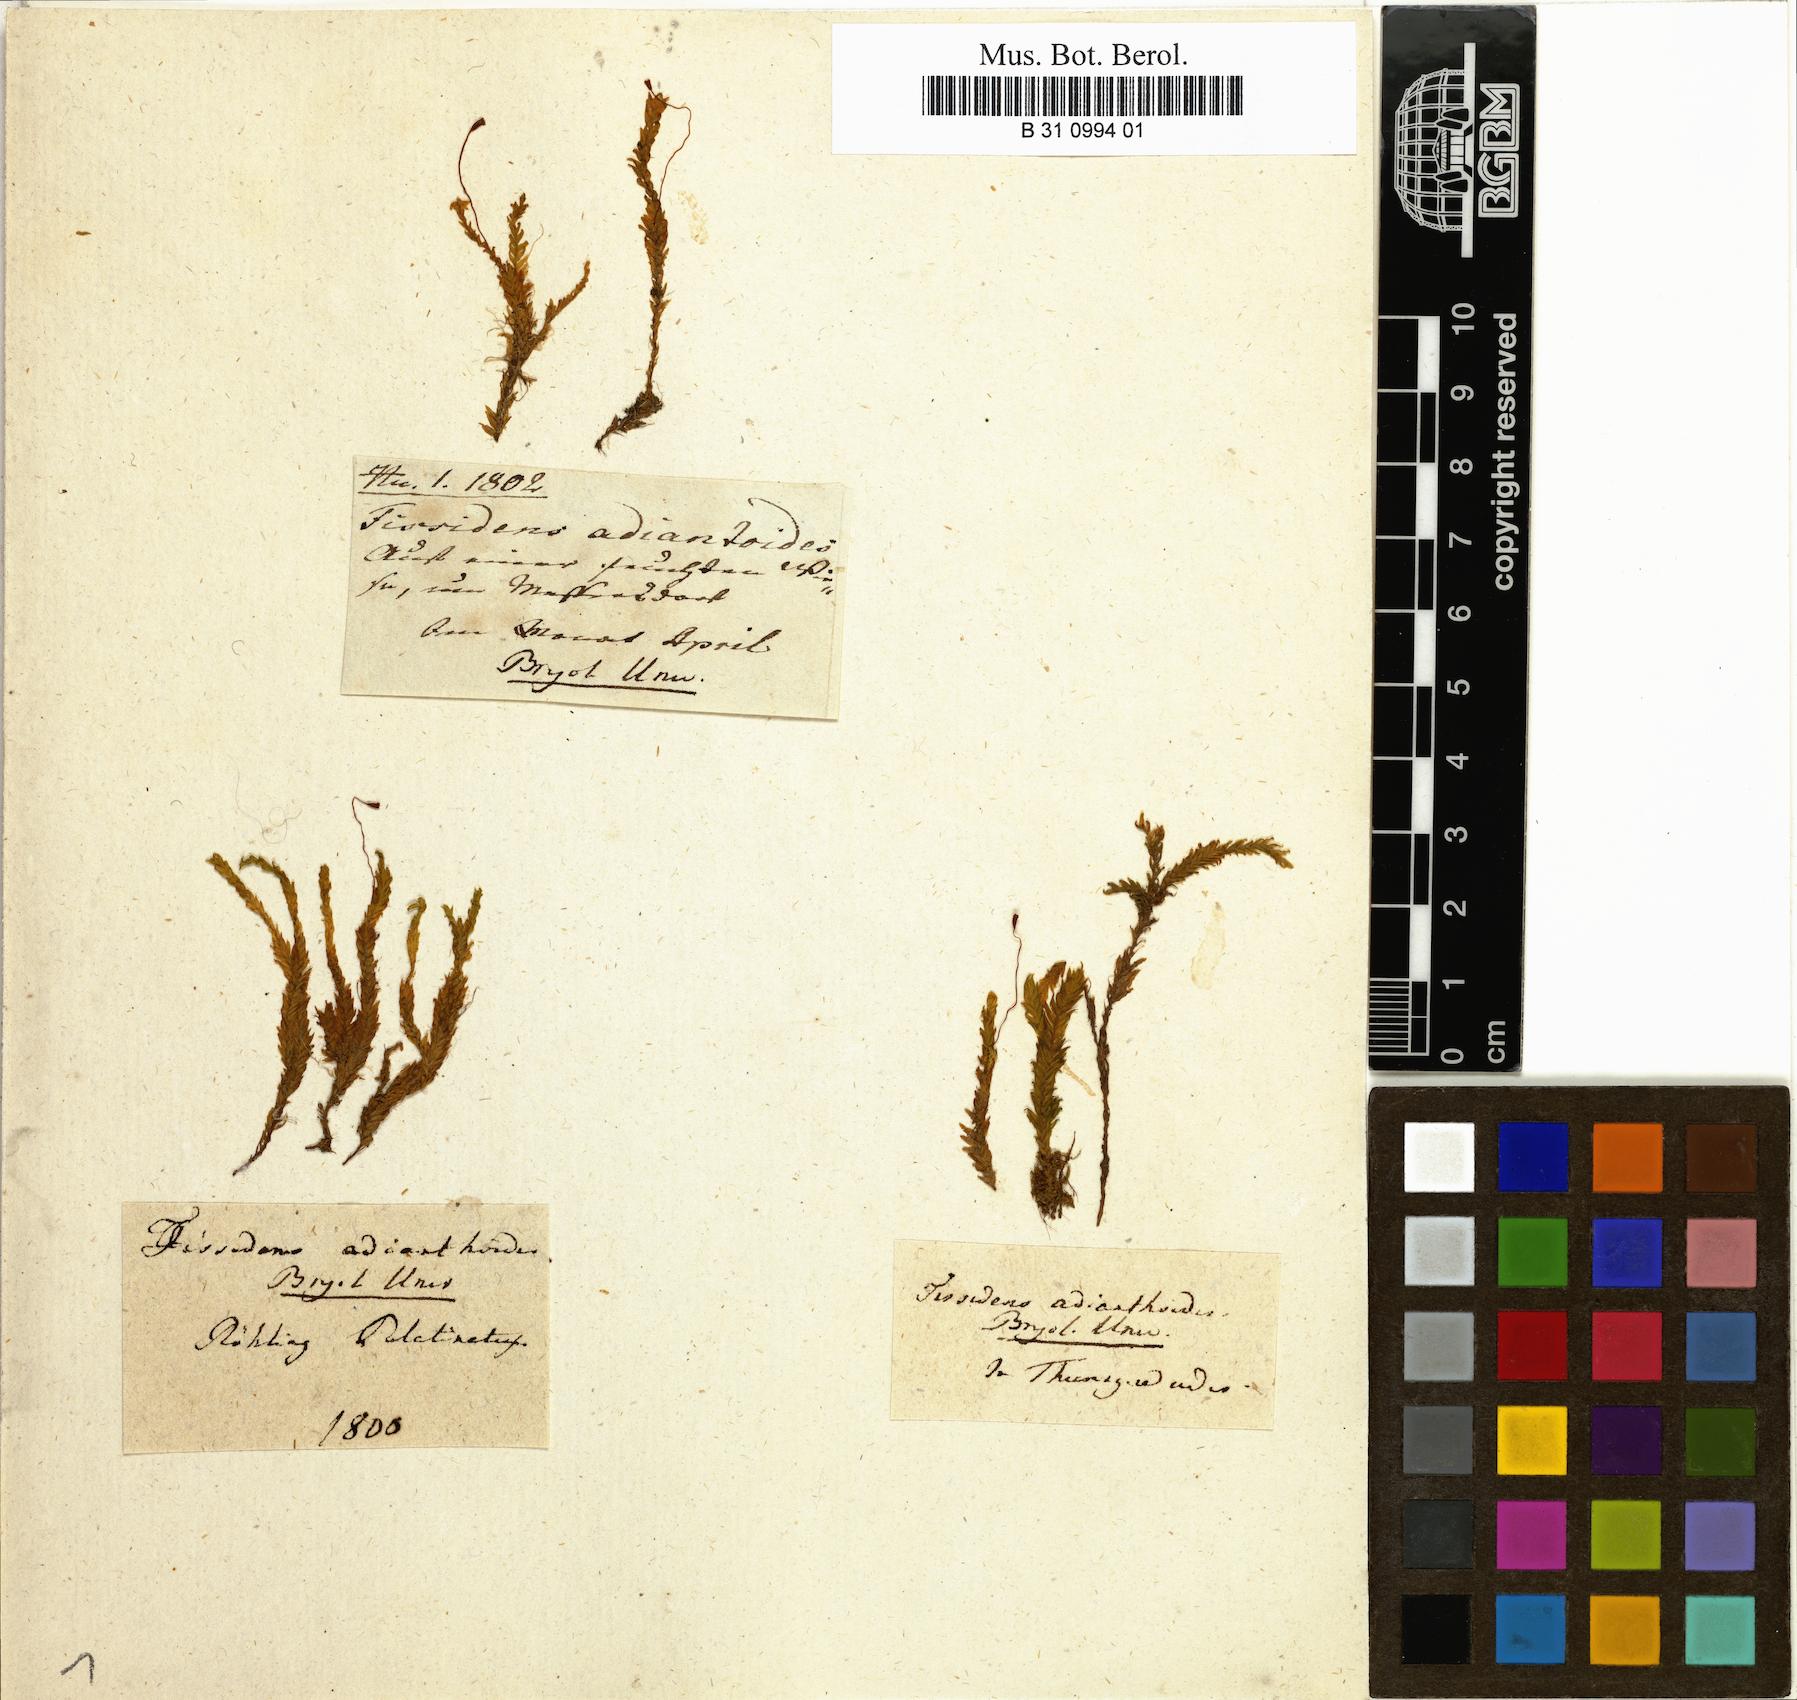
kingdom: Plantae
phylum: Bryophyta
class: Bryopsida
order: Dicranales
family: Fissidentaceae
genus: Fissidens
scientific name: Fissidens adianthoides
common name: Maidenhair pocket moss
